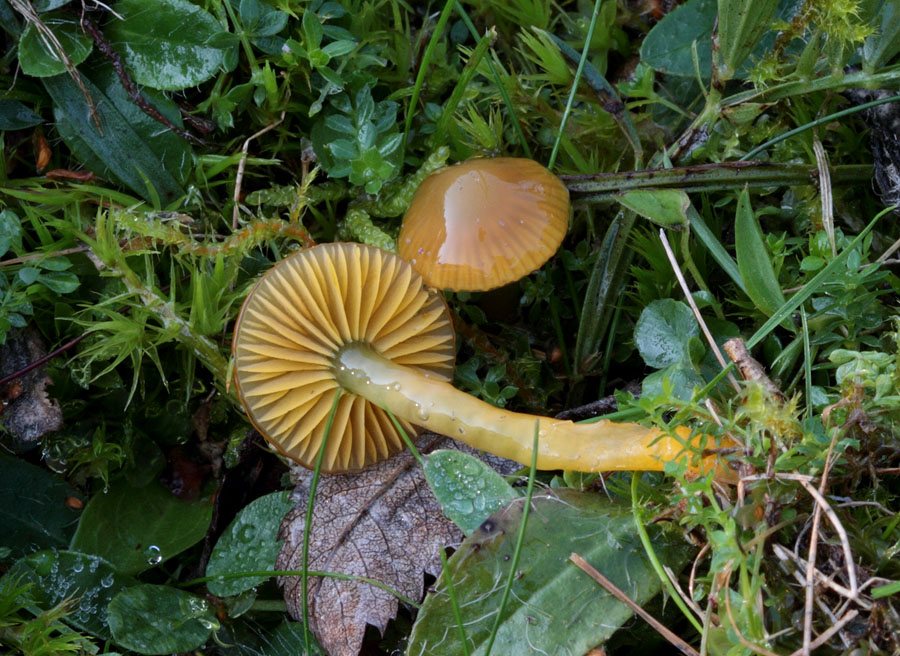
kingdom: Fungi
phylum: Basidiomycota
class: Agaricomycetes
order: Agaricales
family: Hygrophoraceae
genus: Gliophorus
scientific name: Gliophorus psittacinus
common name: papegøje-vokshat
